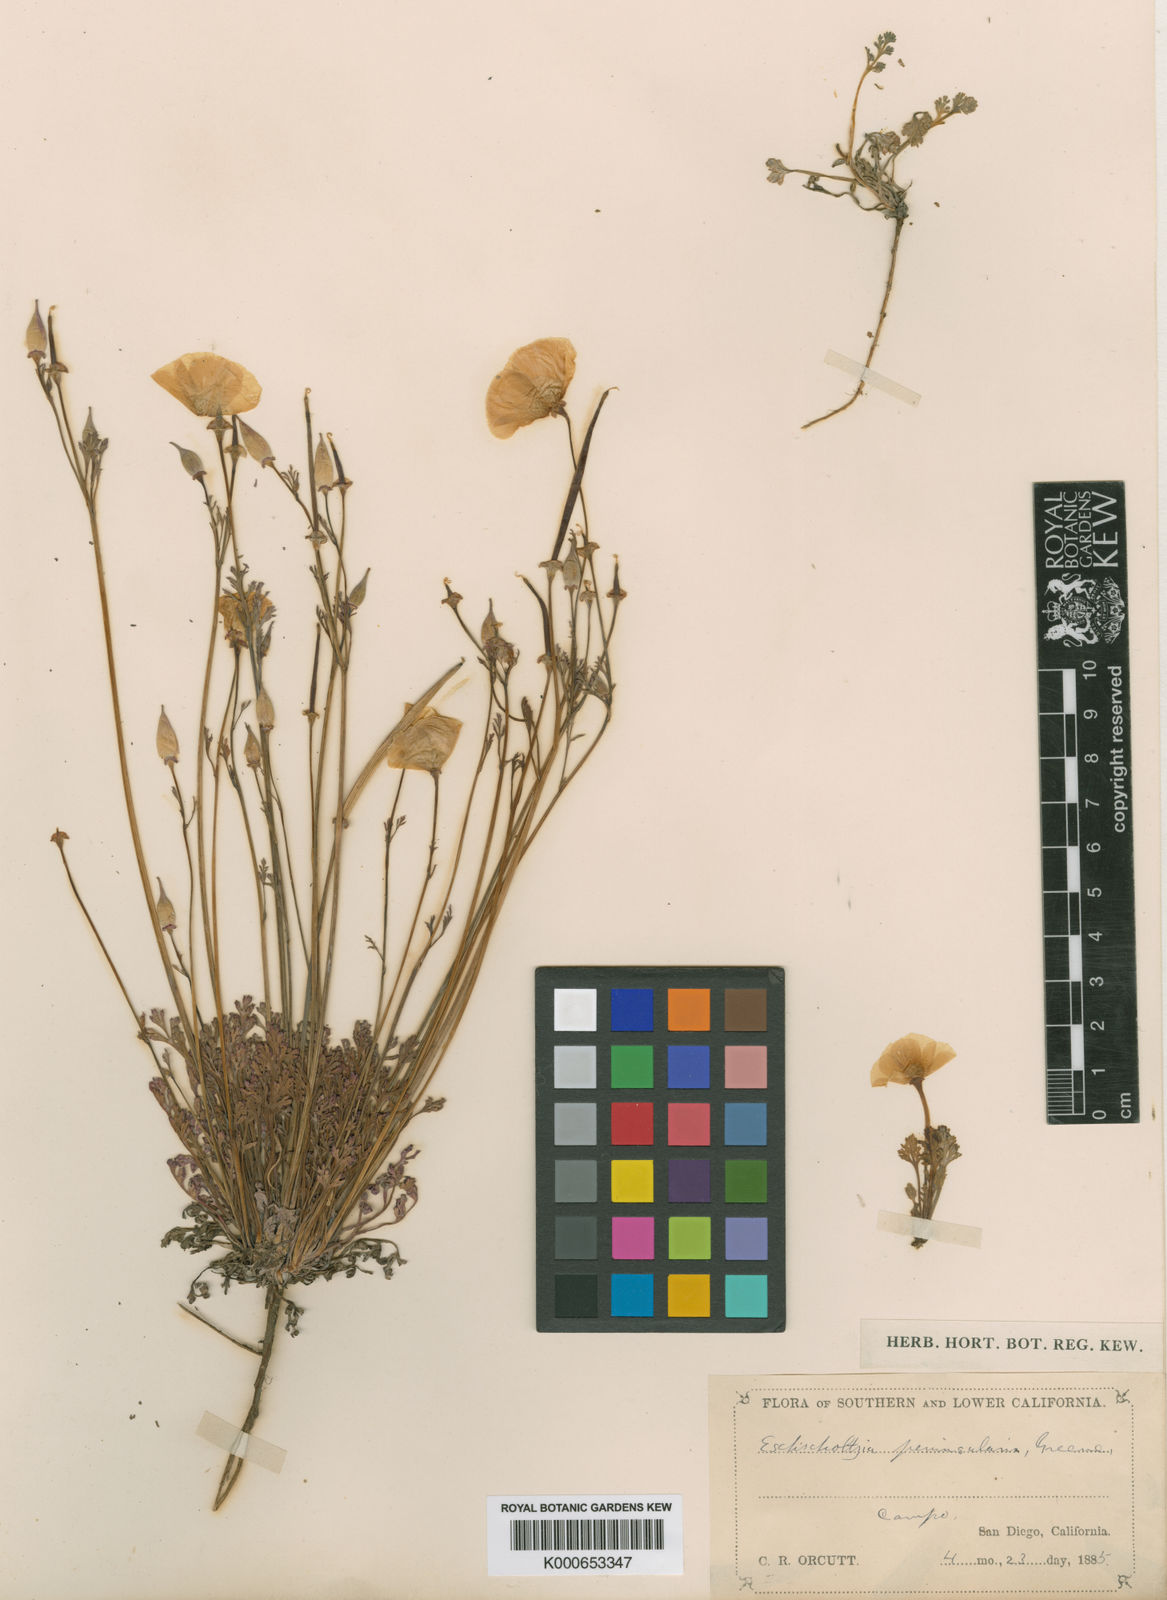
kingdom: Plantae
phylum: Tracheophyta
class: Magnoliopsida
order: Ranunculales
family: Papaveraceae
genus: Eschscholzia
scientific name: Eschscholzia californica
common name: California poppy
